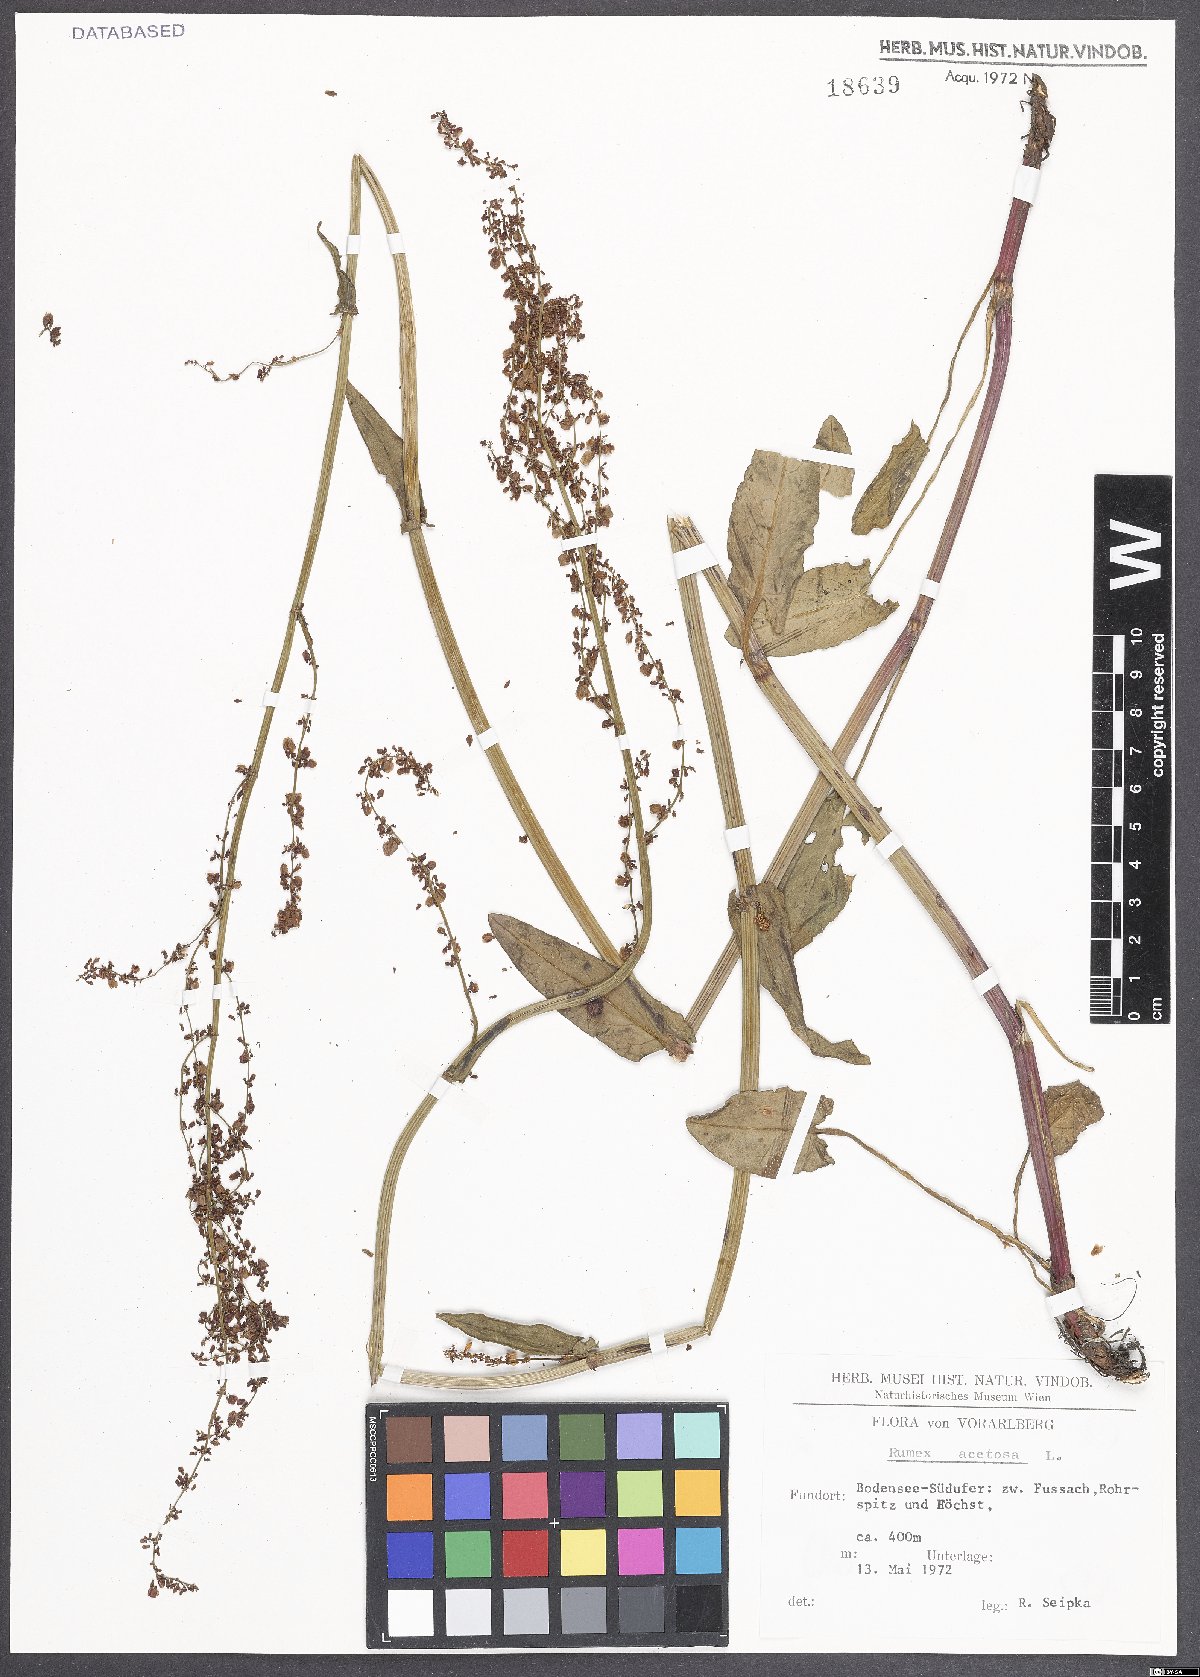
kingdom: Plantae
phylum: Tracheophyta
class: Magnoliopsida
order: Caryophyllales
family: Polygonaceae
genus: Rumex
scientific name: Rumex acetosa
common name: Garden sorrel
